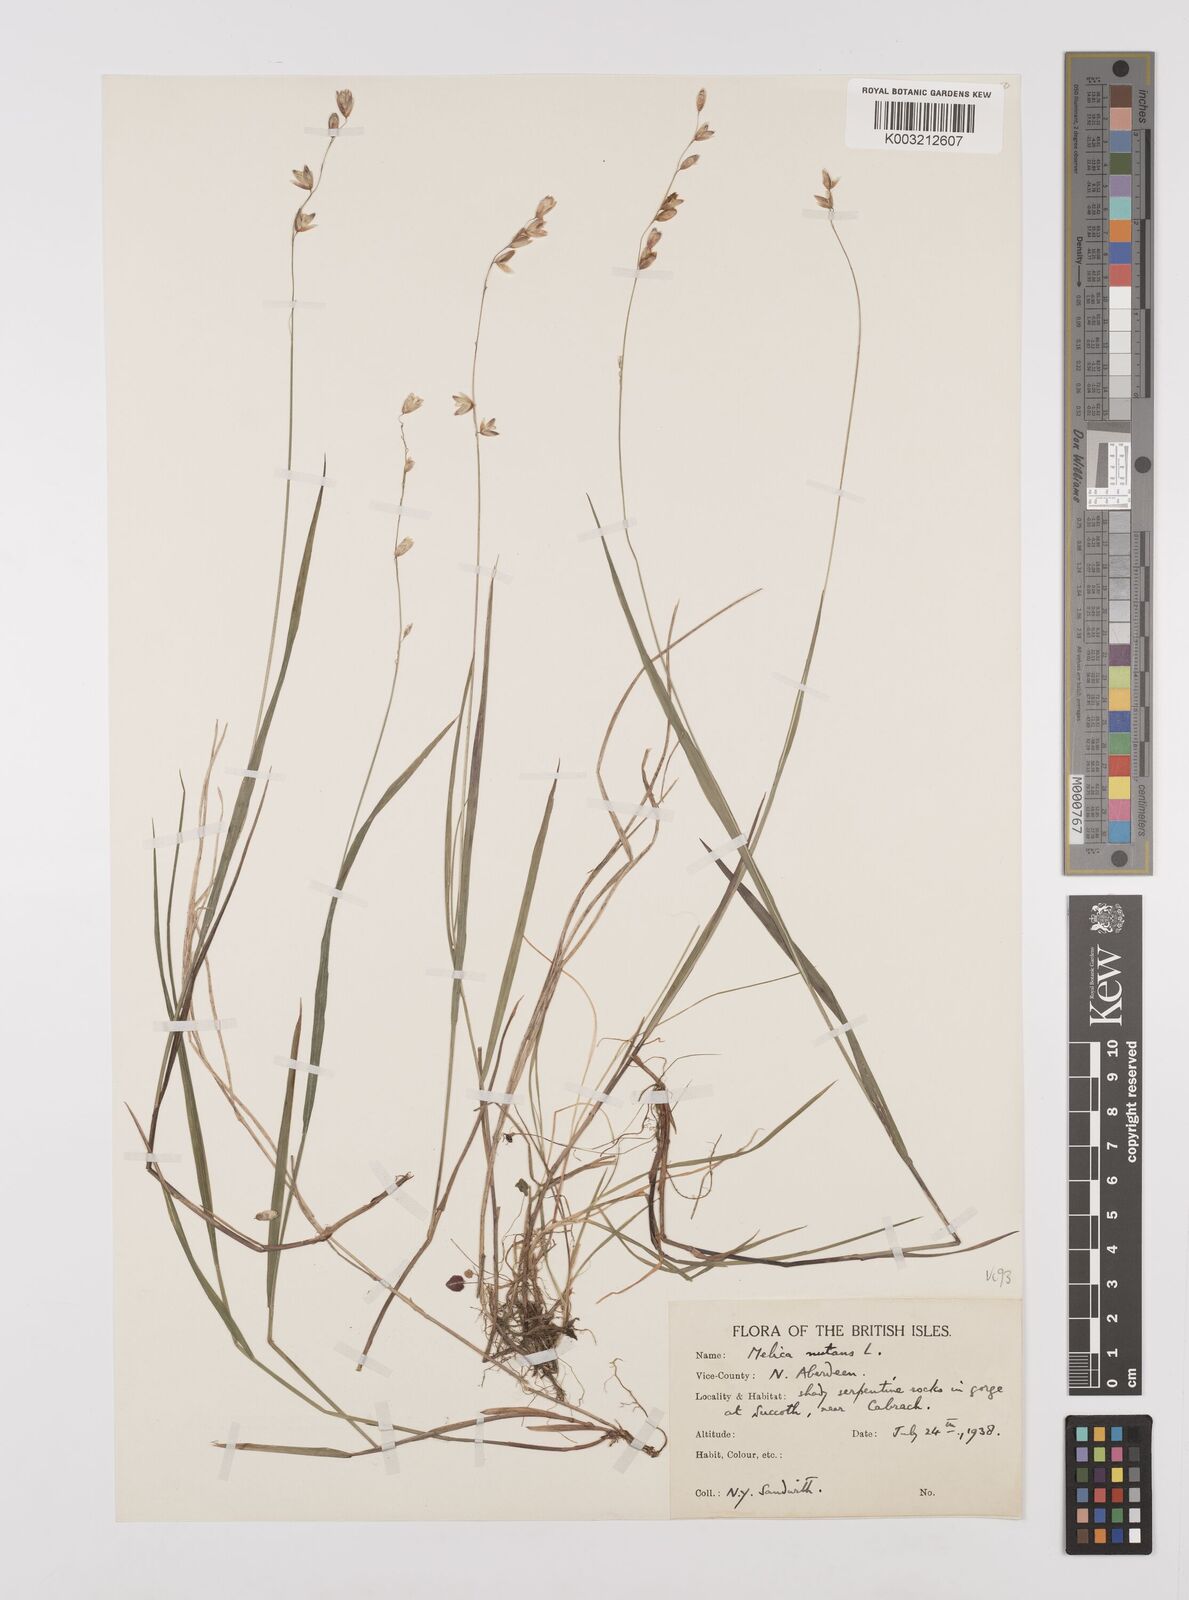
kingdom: Plantae
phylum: Tracheophyta
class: Liliopsida
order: Poales
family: Poaceae
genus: Melica
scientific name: Melica
